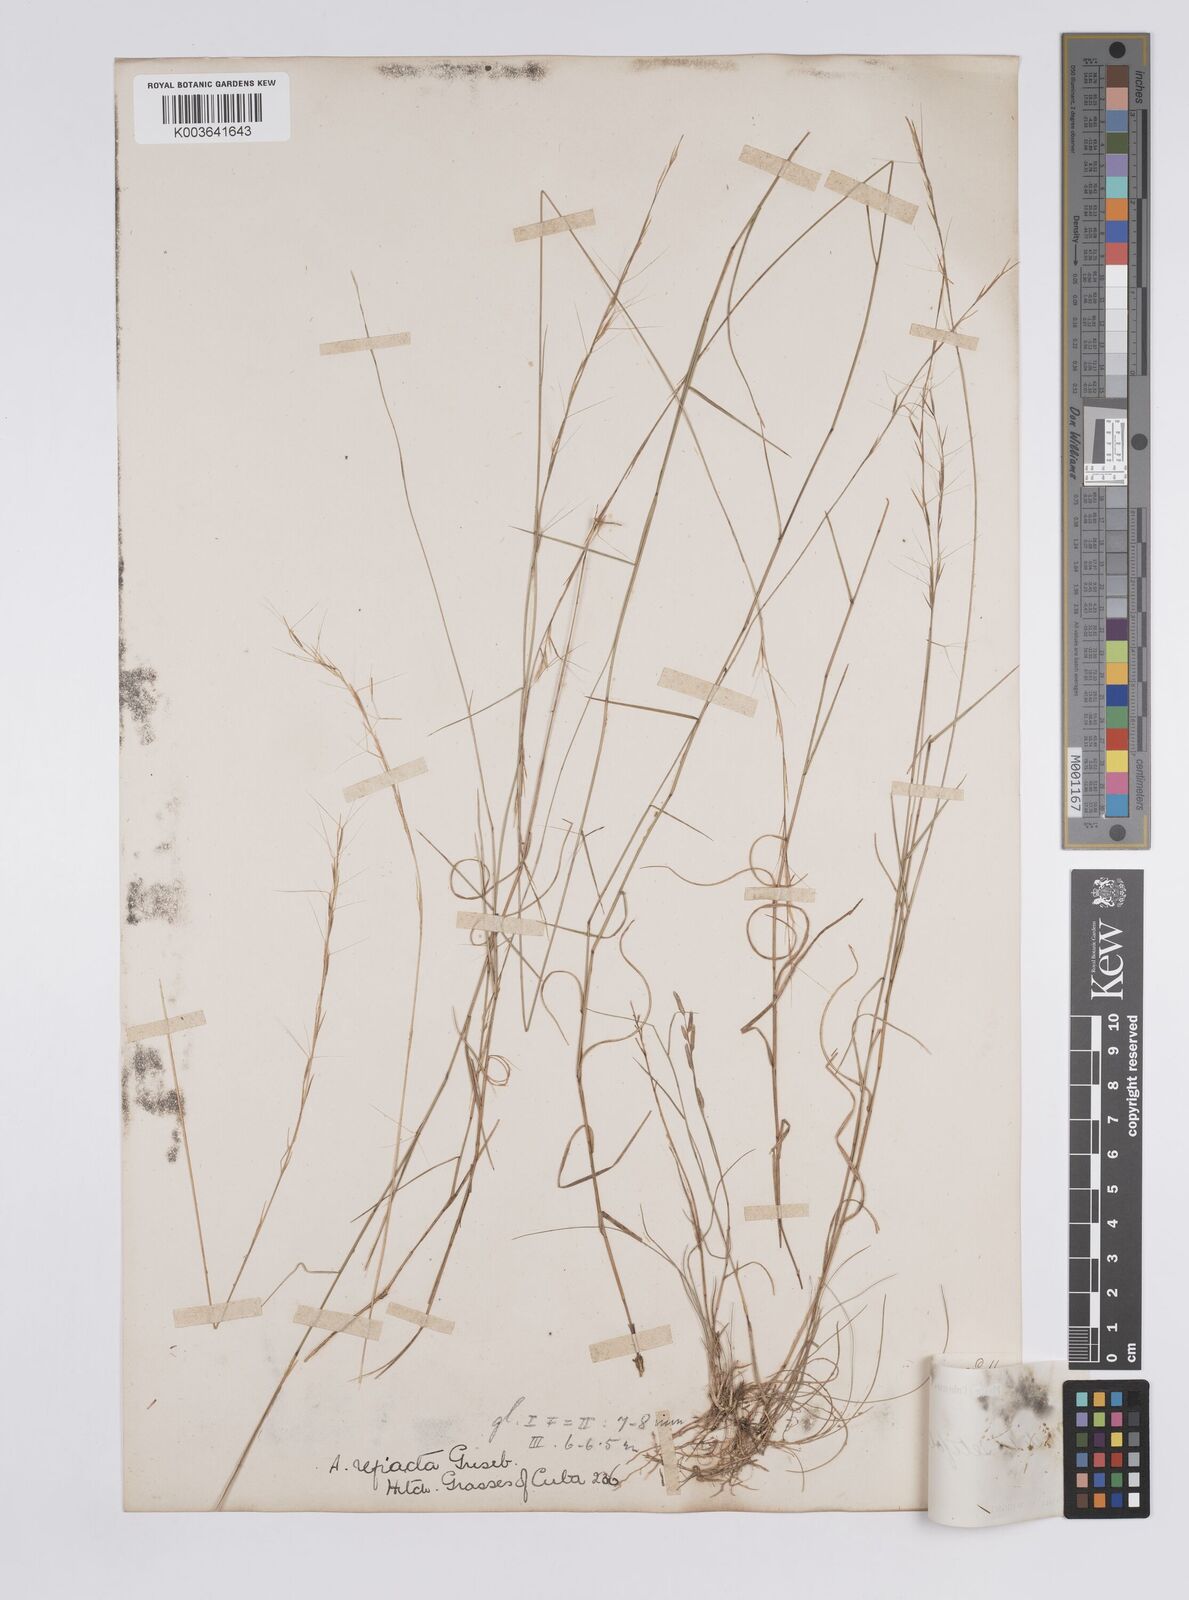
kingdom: Plantae
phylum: Tracheophyta
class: Liliopsida
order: Poales
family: Poaceae
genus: Aristida
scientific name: Aristida vilfifolia
